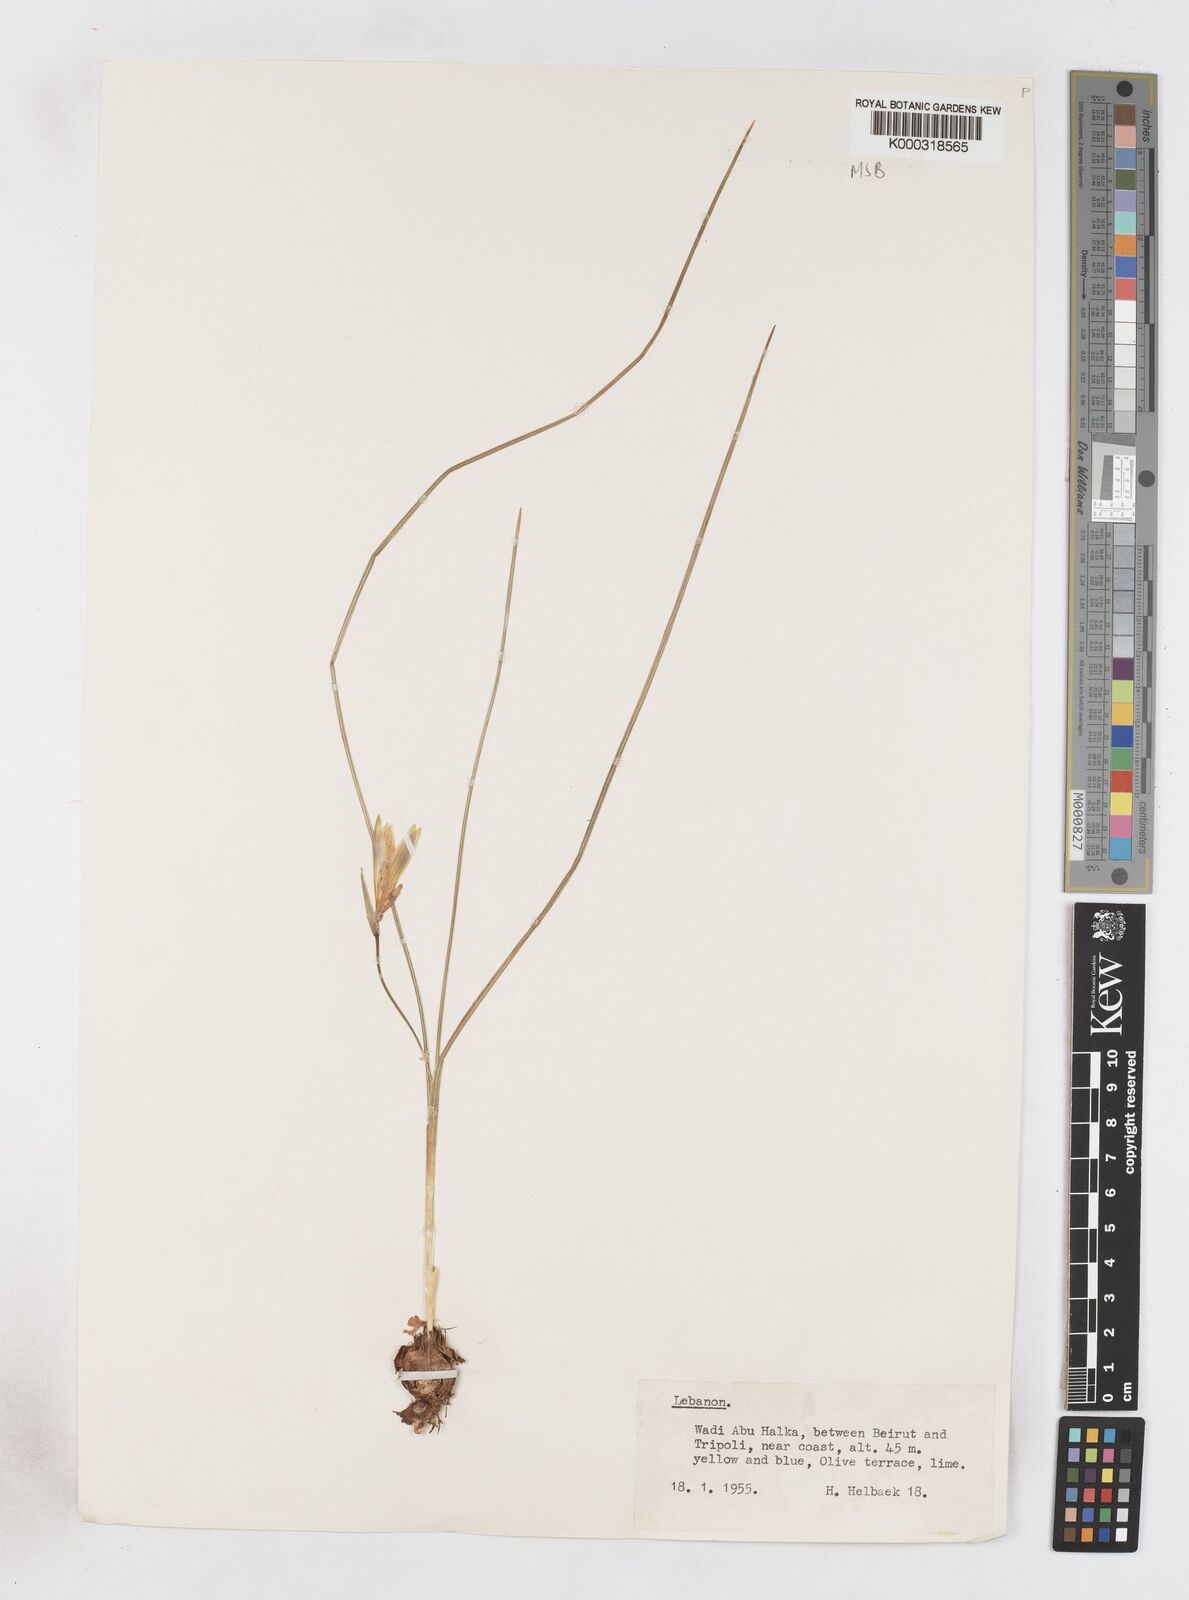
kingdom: Plantae
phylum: Tracheophyta
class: Liliopsida
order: Asparagales
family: Iridaceae
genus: Romulea
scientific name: Romulea bulbocodium
